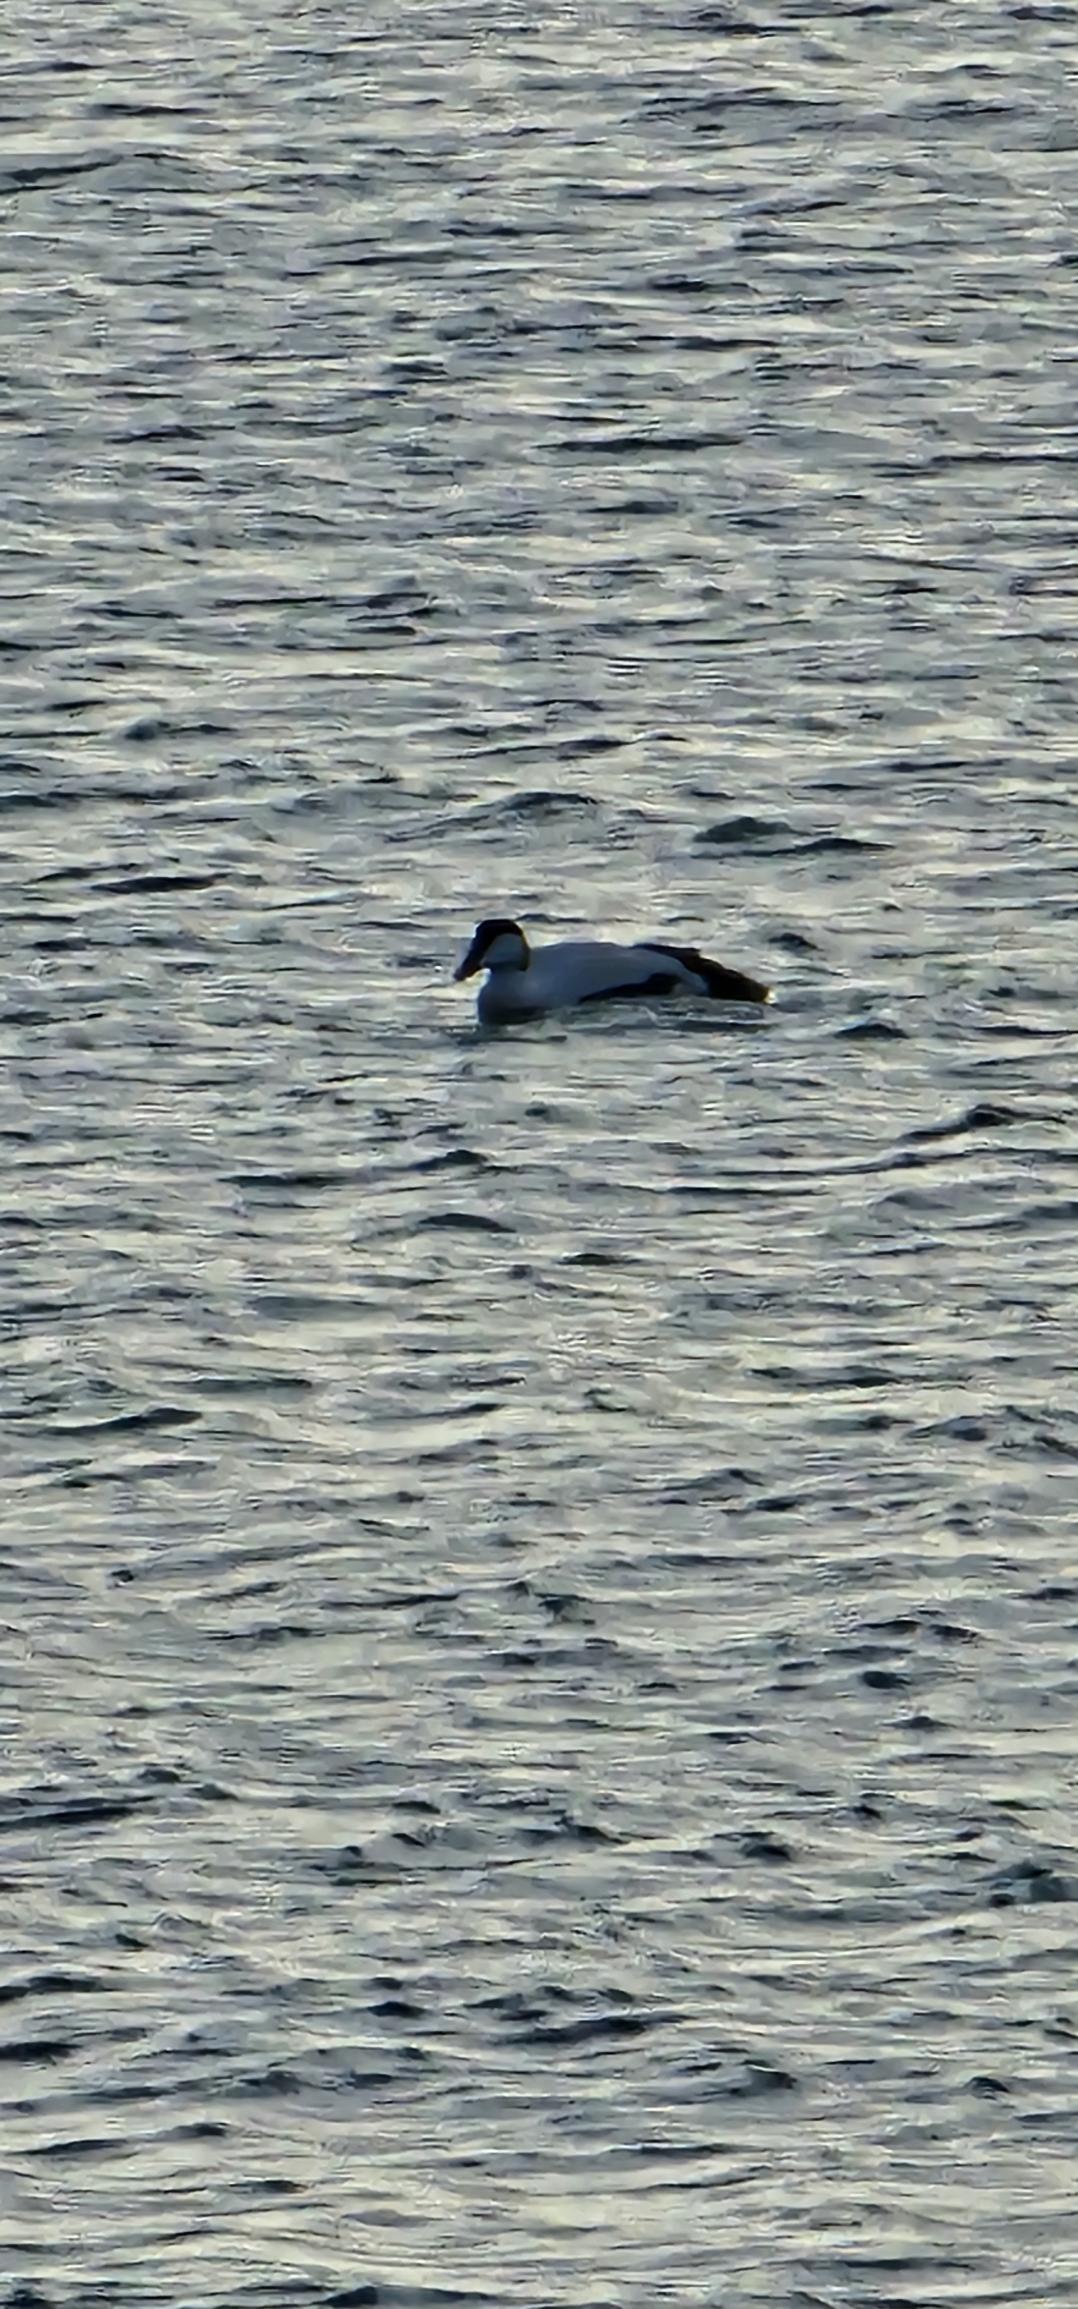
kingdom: Animalia
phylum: Chordata
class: Aves
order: Anseriformes
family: Anatidae
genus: Somateria
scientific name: Somateria mollissima
